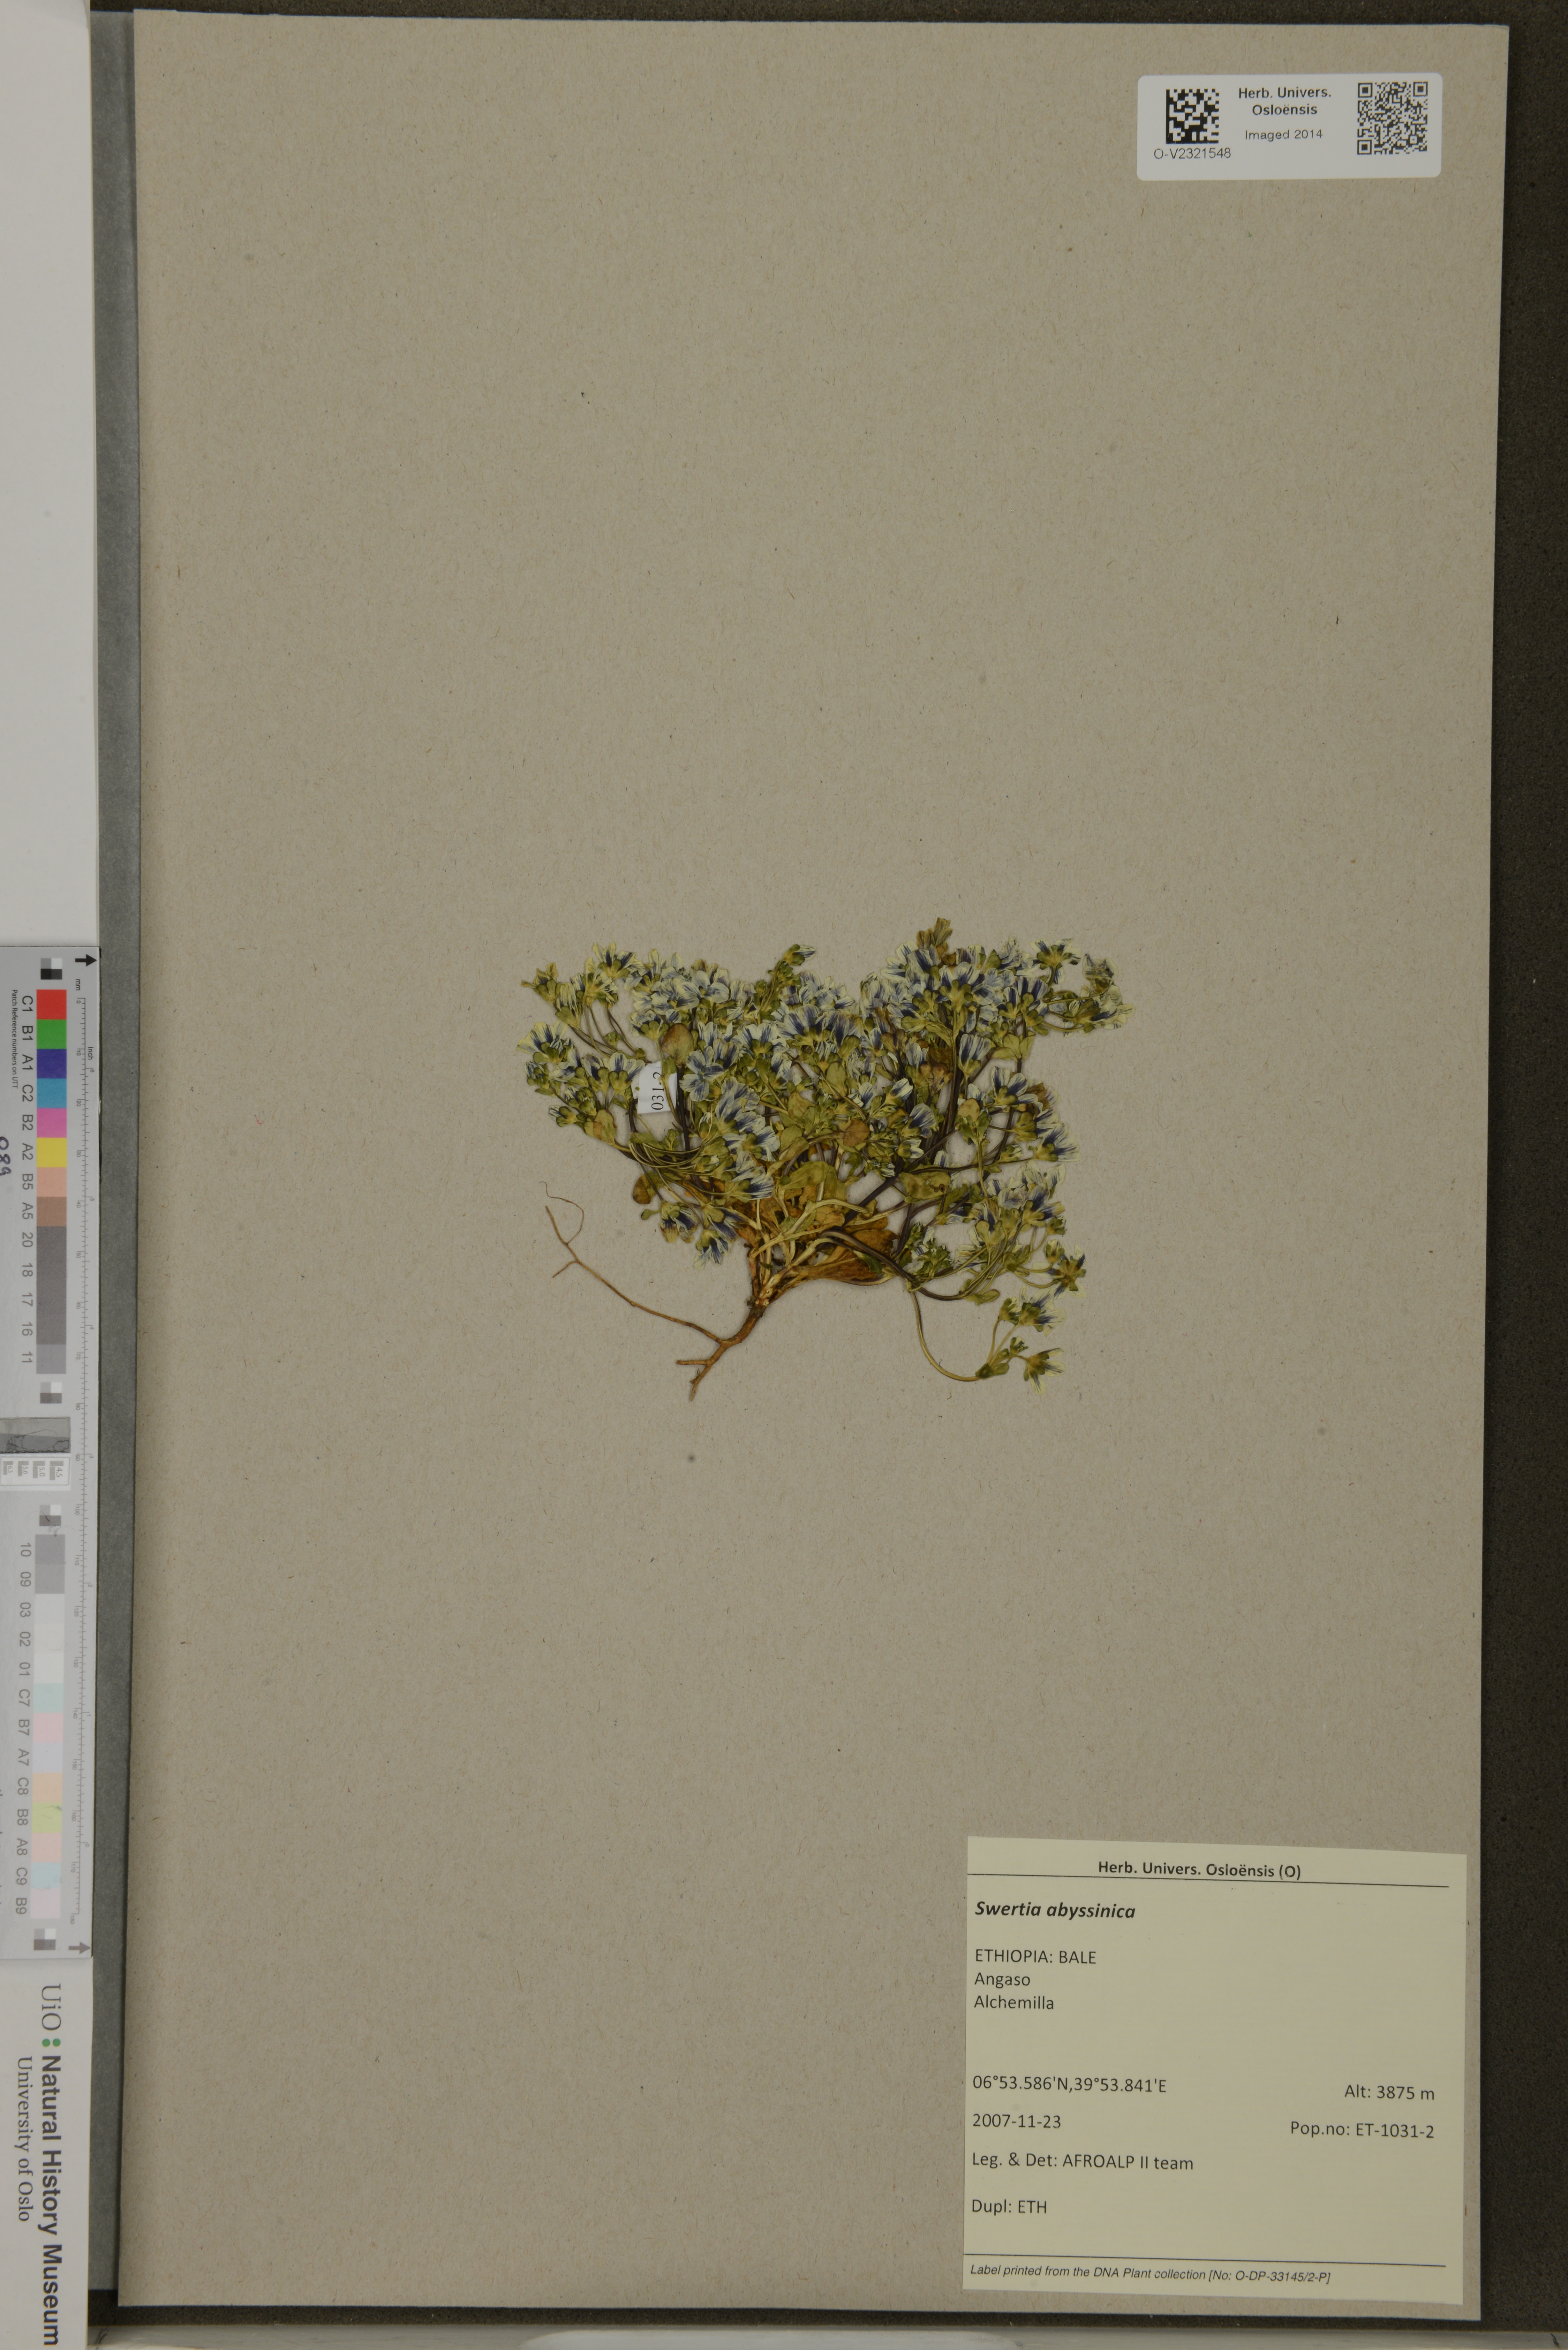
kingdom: Plantae
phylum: Tracheophyta
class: Magnoliopsida
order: Gentianales
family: Gentianaceae
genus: Swertia
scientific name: Swertia abyssinica
